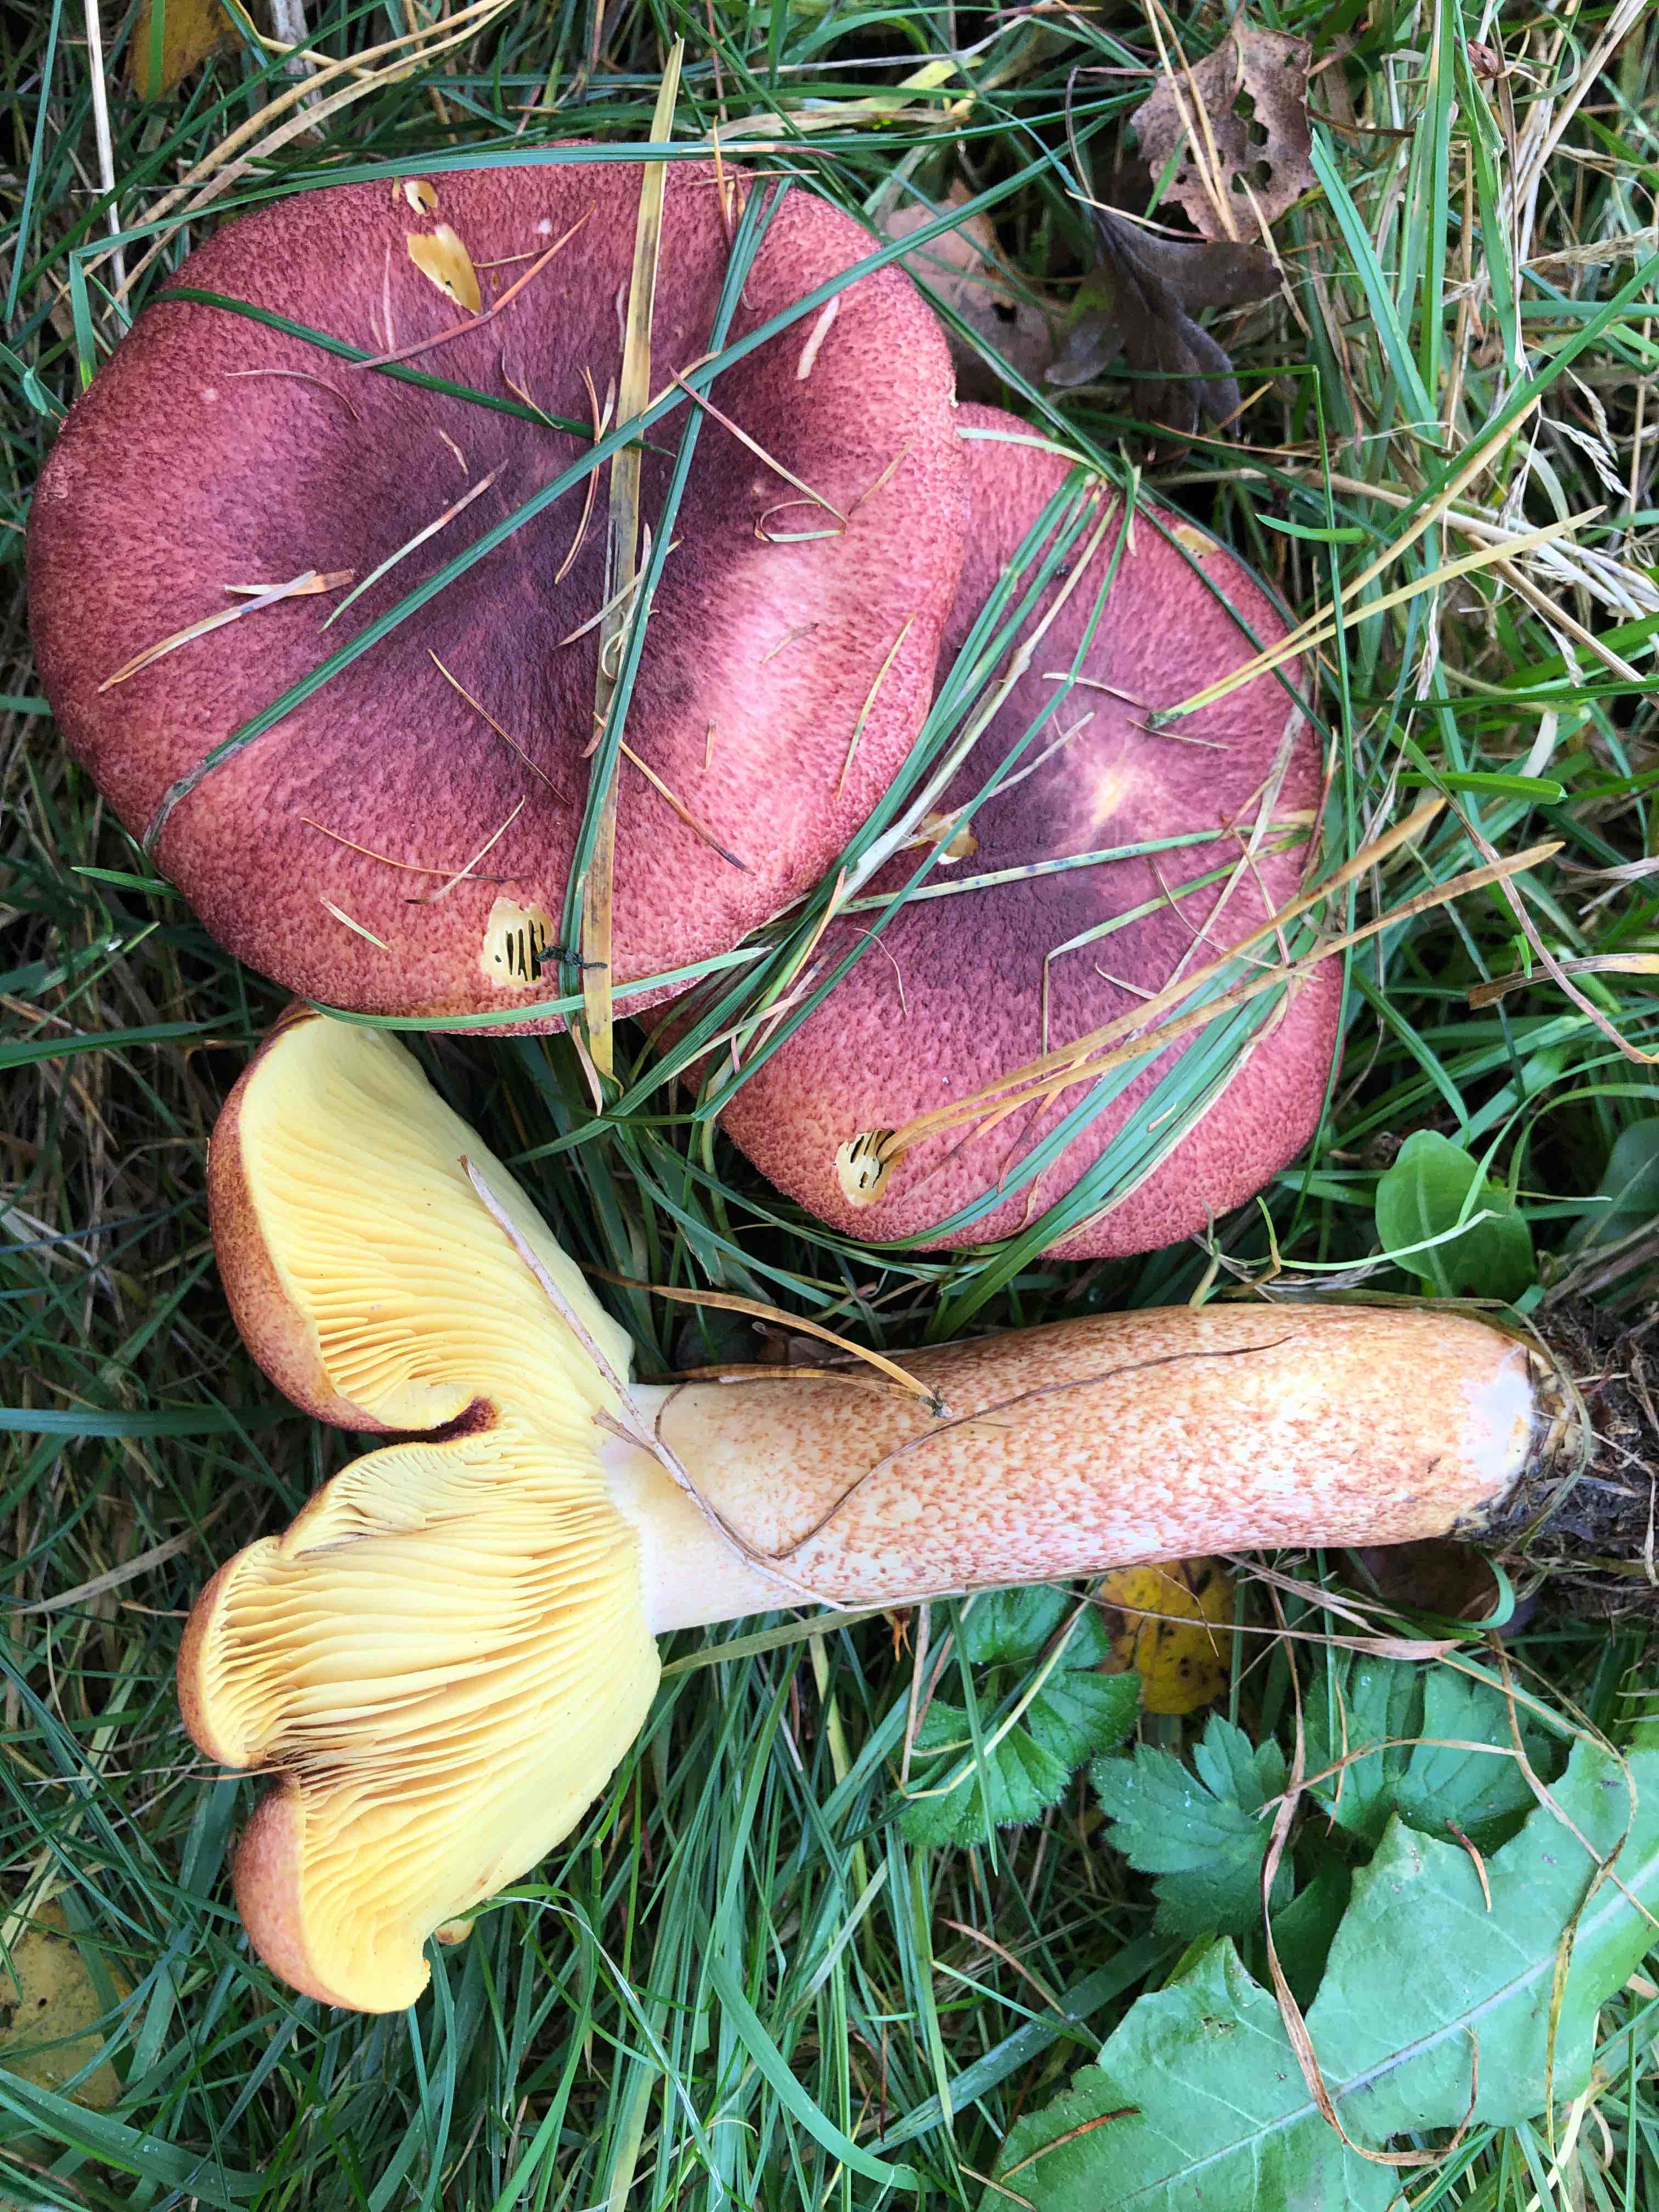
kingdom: Fungi
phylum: Basidiomycota
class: Agaricomycetes
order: Agaricales
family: Tricholomataceae
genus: Tricholomopsis
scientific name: Tricholomopsis rutilans
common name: purpur-væbnerhat
